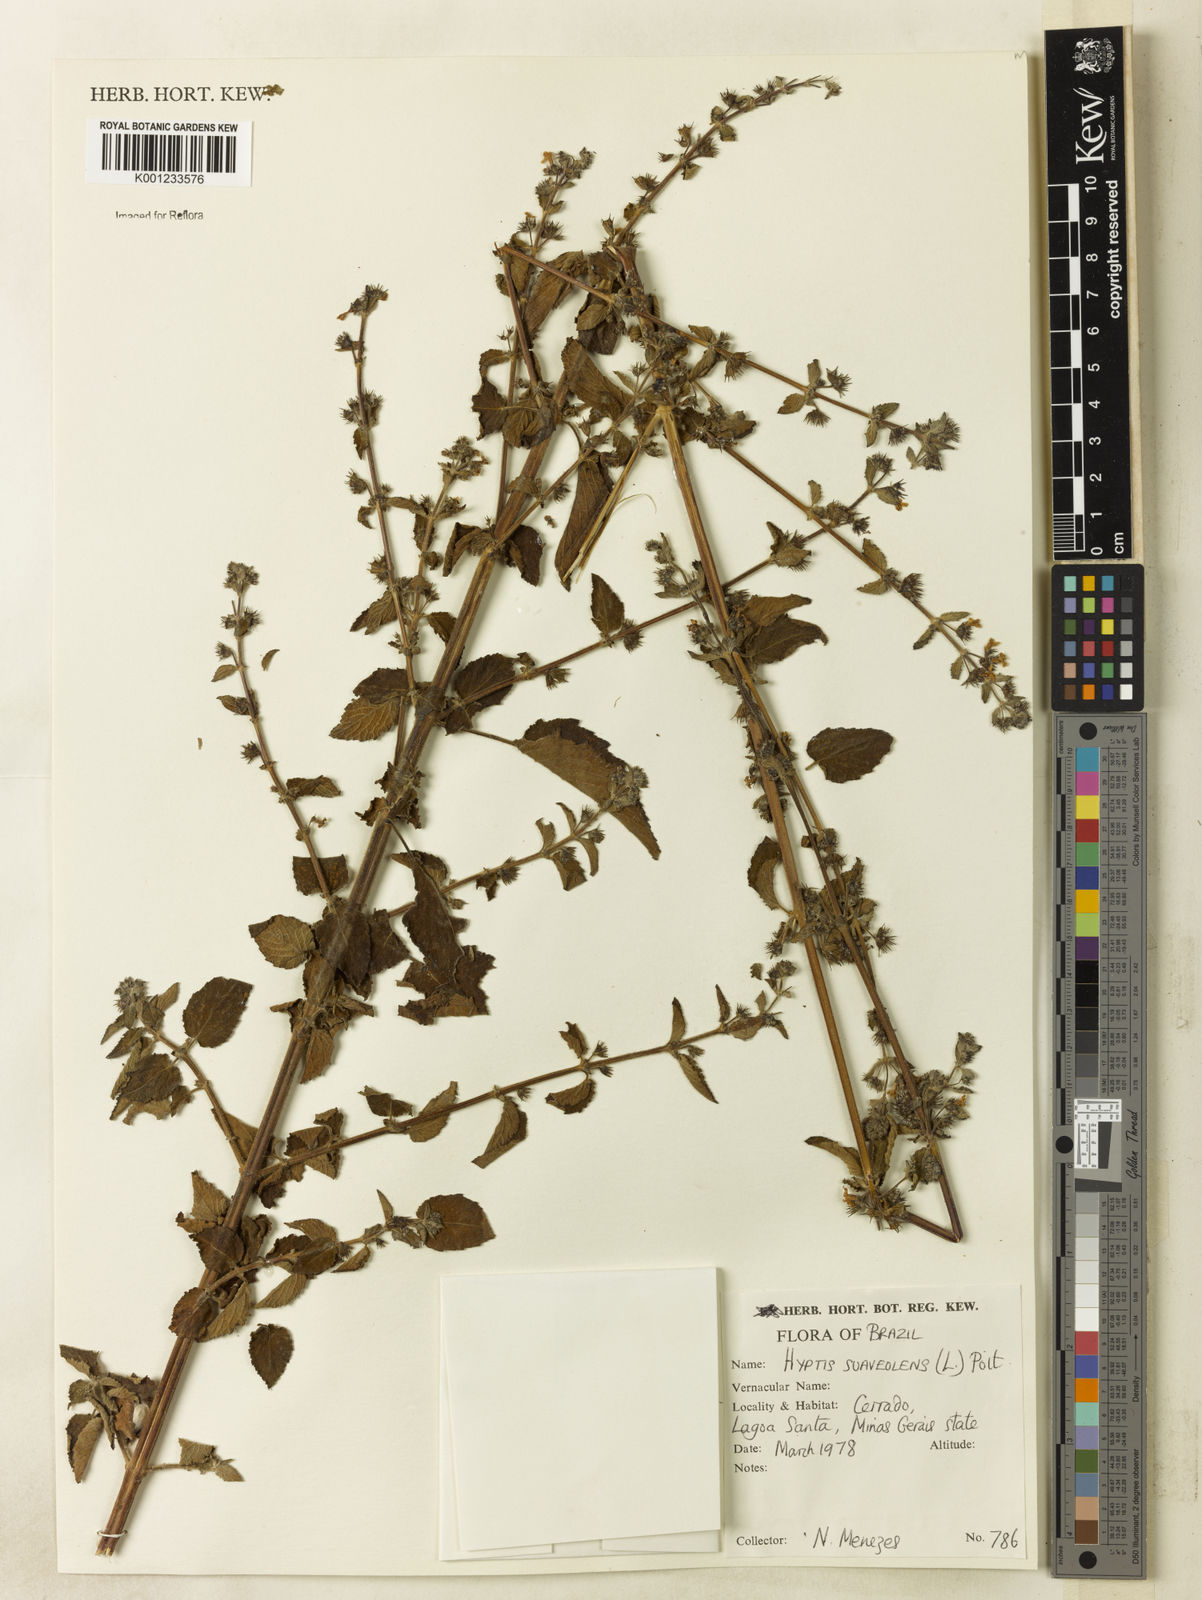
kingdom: Plantae
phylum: Tracheophyta
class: Magnoliopsida
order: Lamiales
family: Lamiaceae
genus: Mesosphaerum
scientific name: Mesosphaerum suaveolens
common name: Pignut
